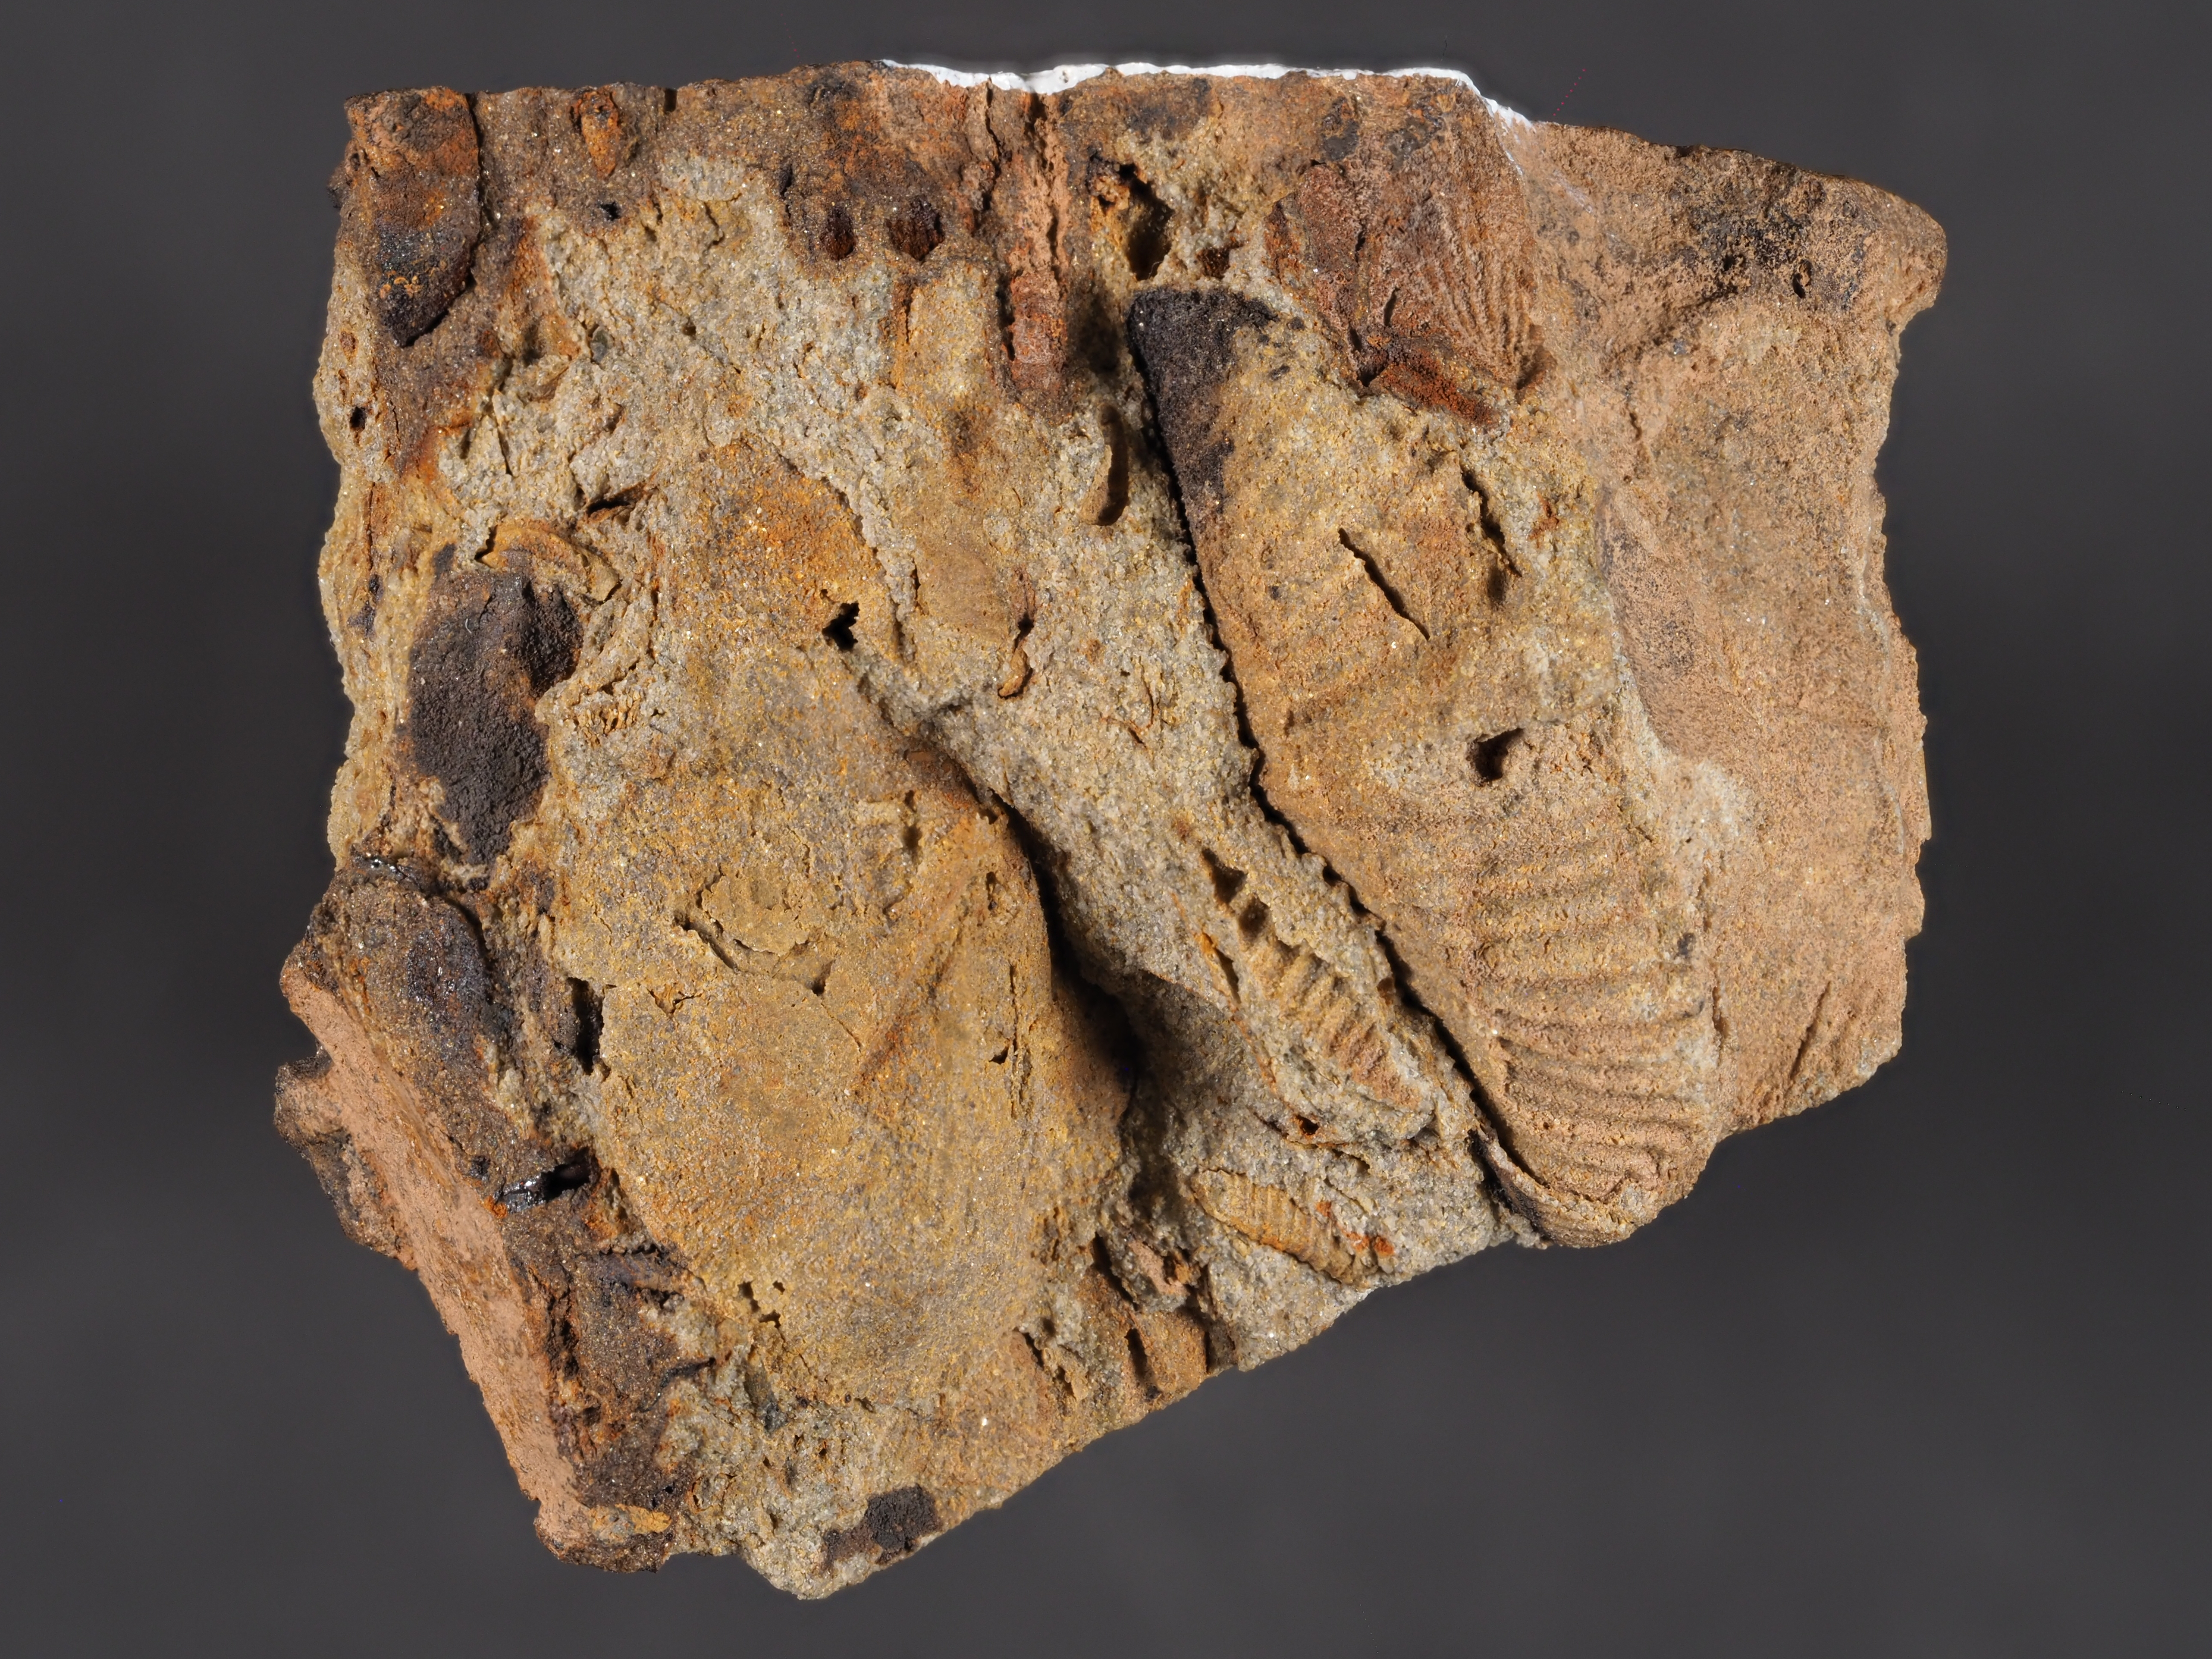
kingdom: Animalia
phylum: Brachiopoda
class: Rhynchonellata
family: Delthyrididae
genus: Euryspirifer
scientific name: Euryspirifer
